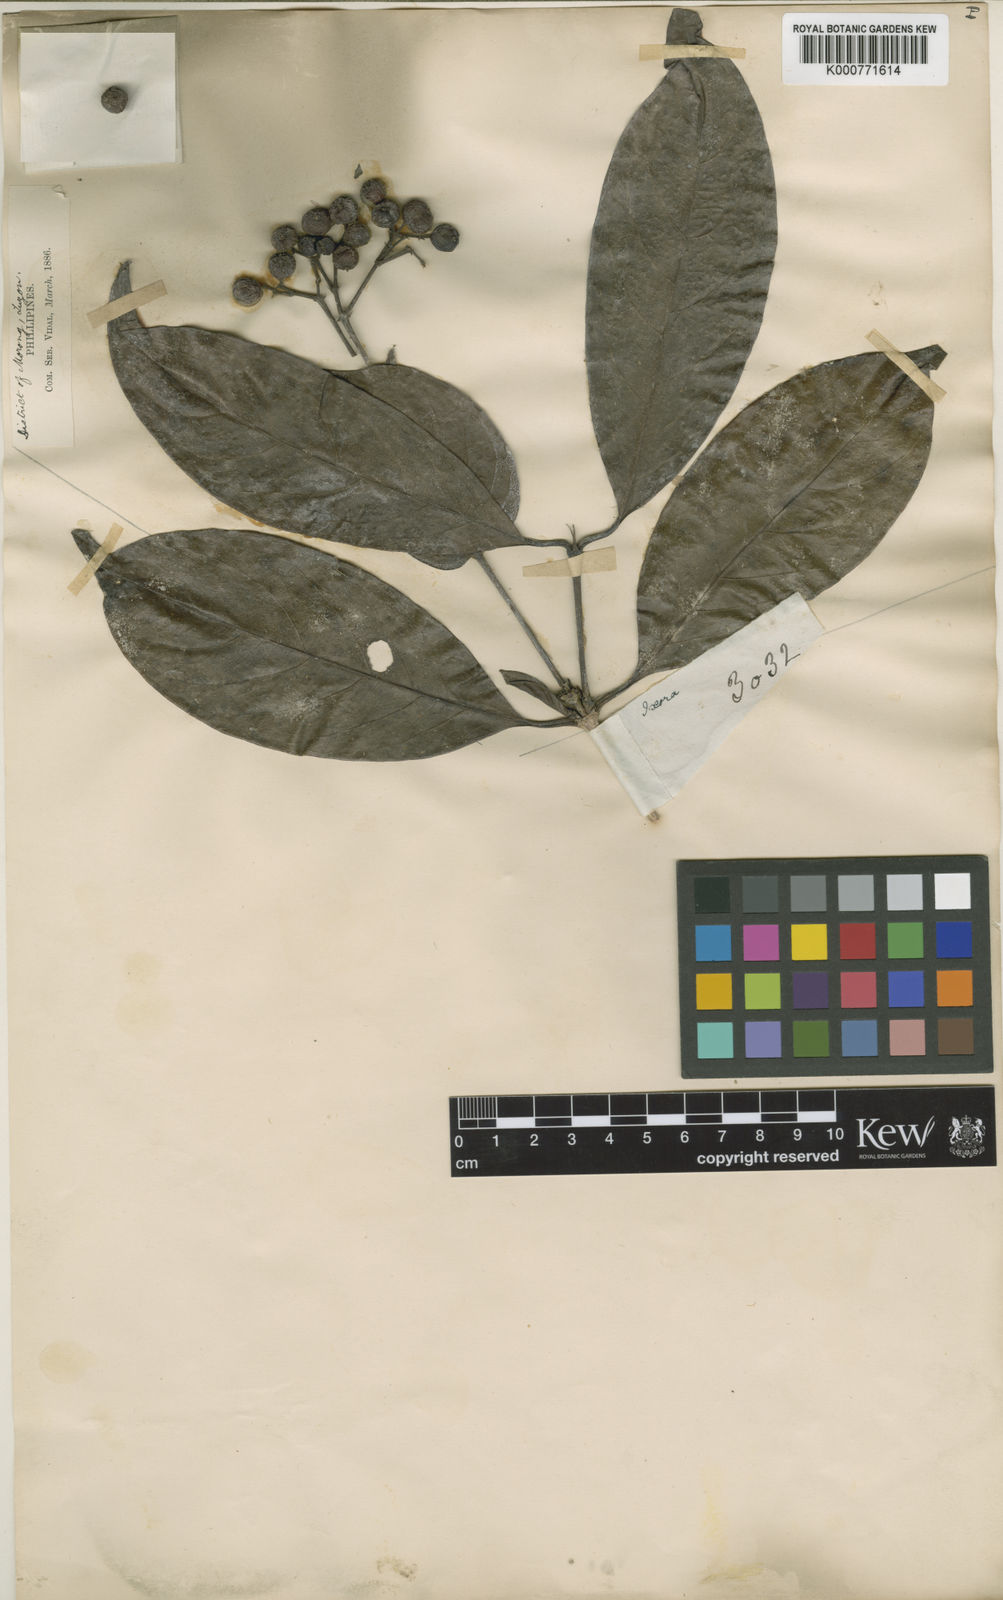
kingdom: Plantae
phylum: Tracheophyta
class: Magnoliopsida
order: Gentianales
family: Rubiaceae
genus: Ixora
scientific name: Ixora cumingiana
